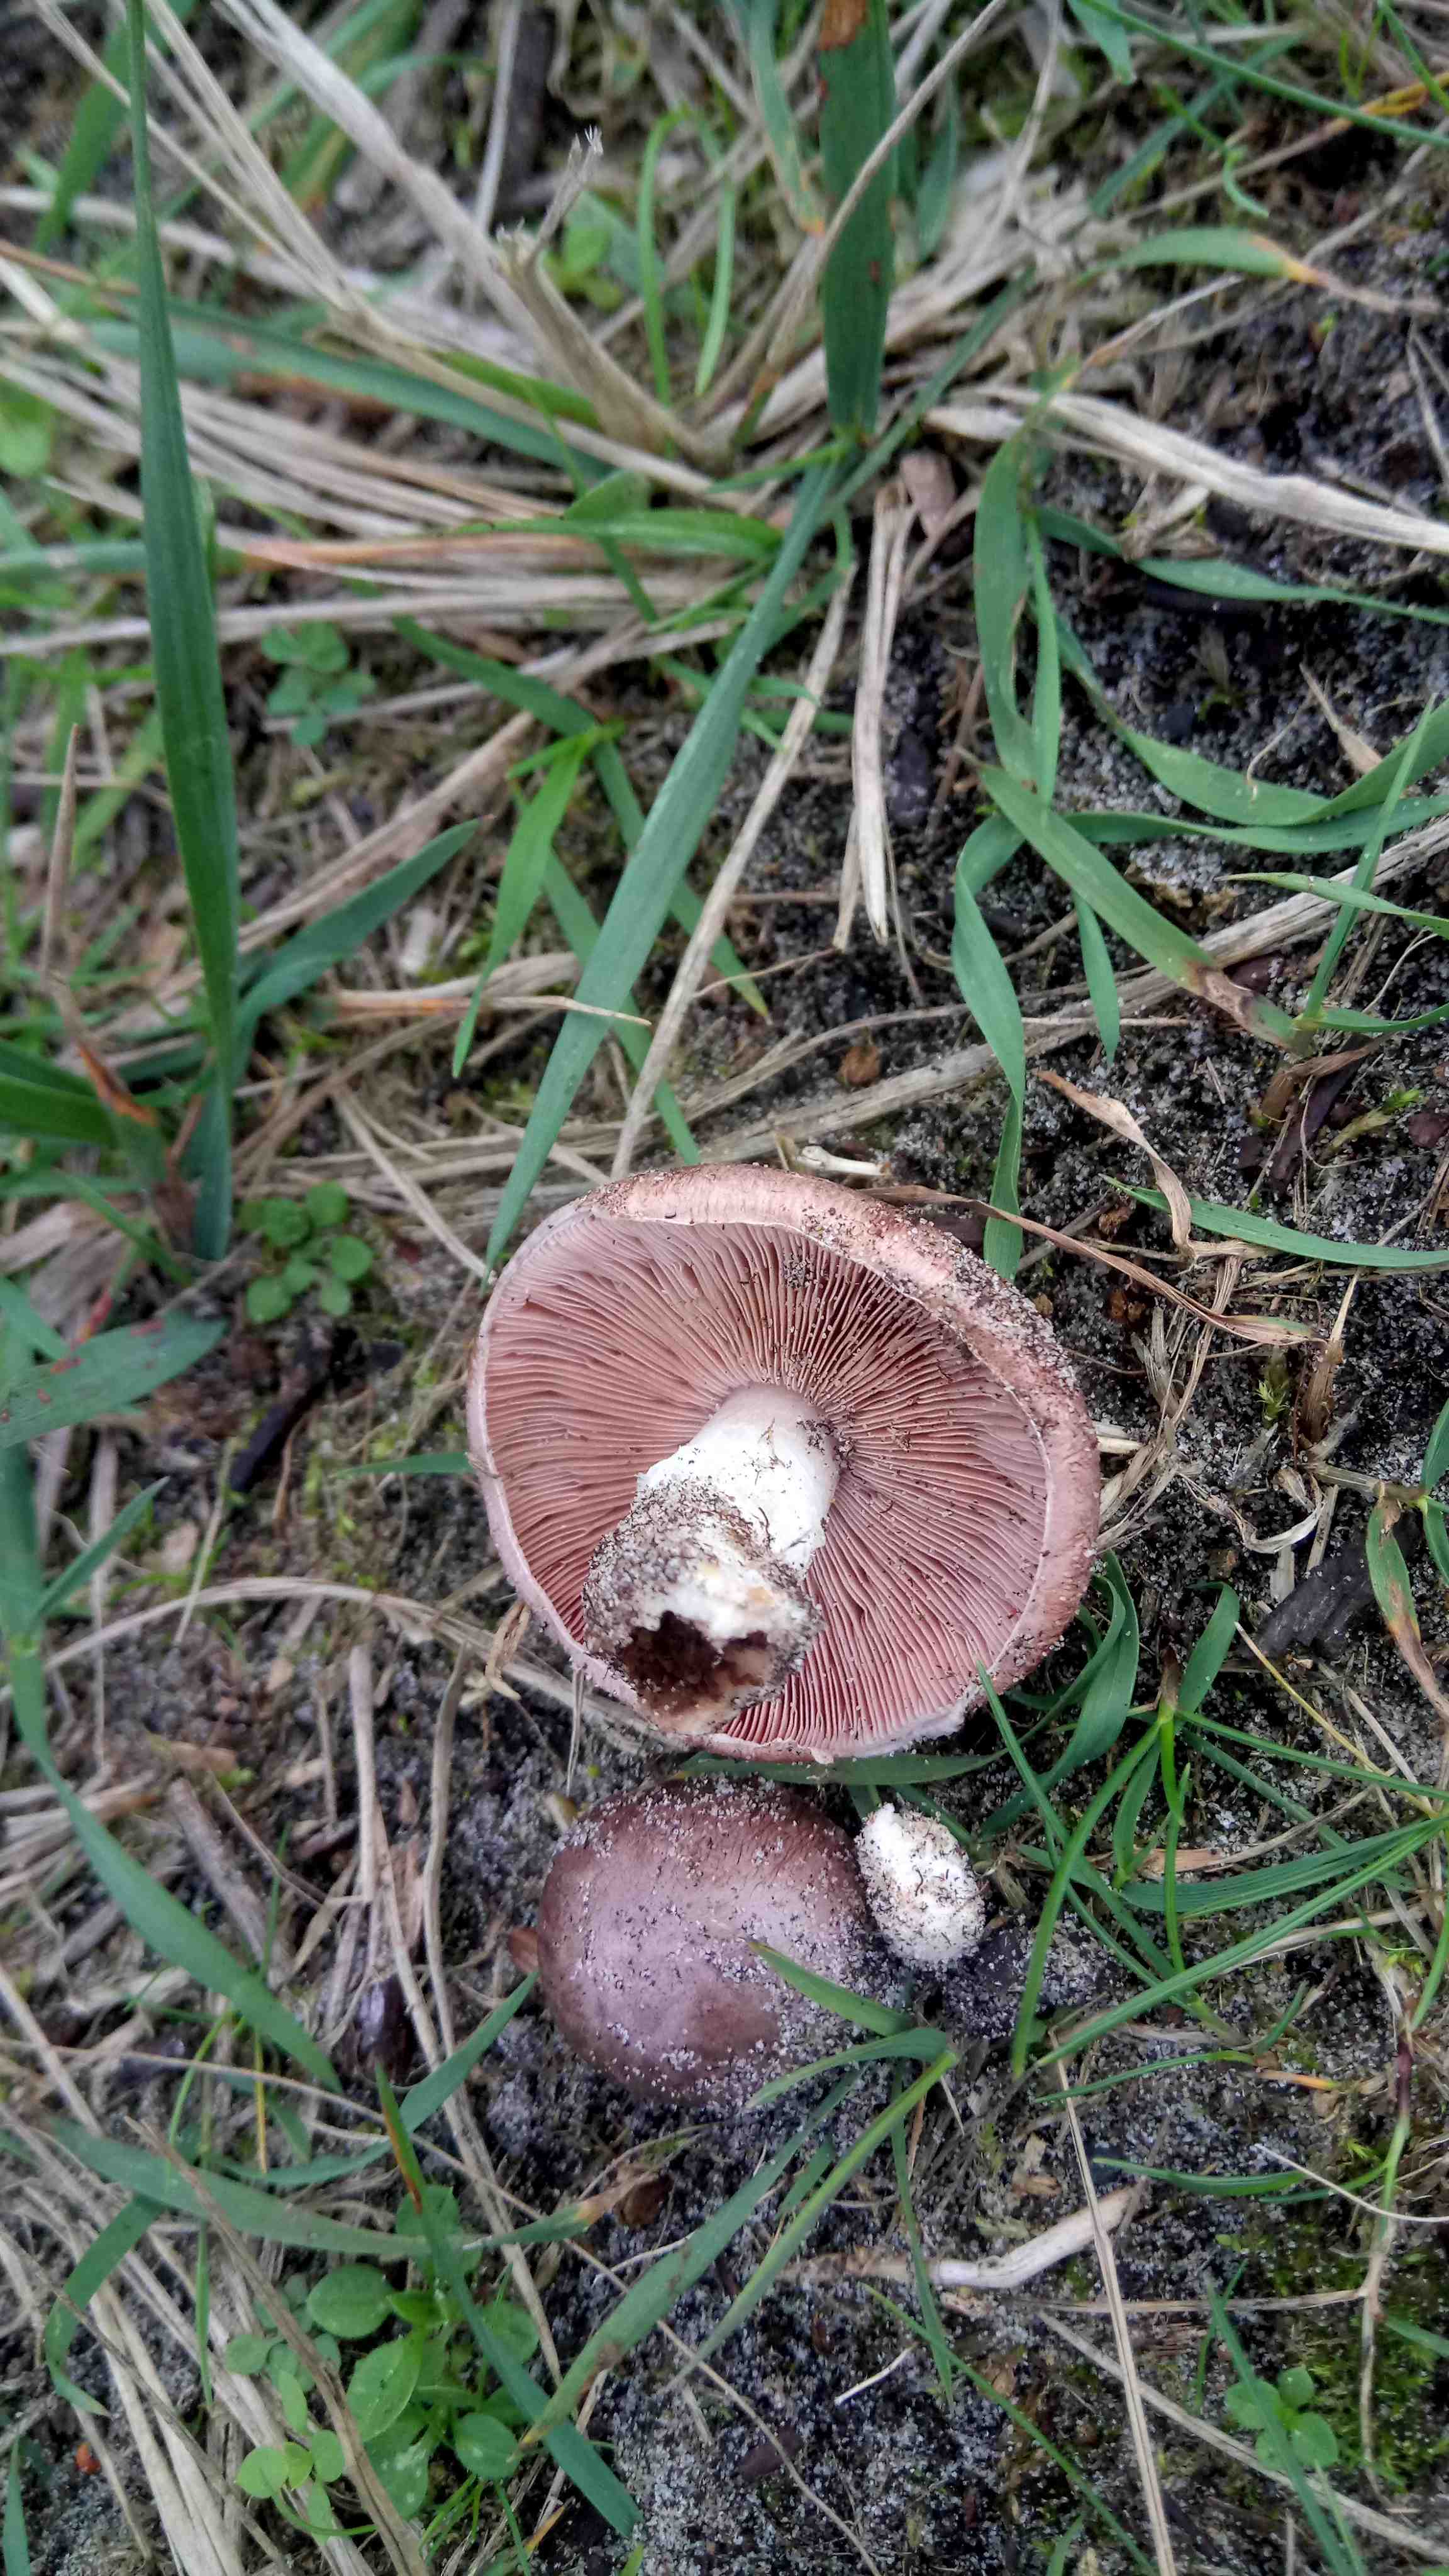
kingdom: Fungi
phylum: Basidiomycota
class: Agaricomycetes
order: Agaricales
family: Agaricaceae
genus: Agaricus
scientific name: Agaricus cupreobrunneus
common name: kobberbrun champignon
